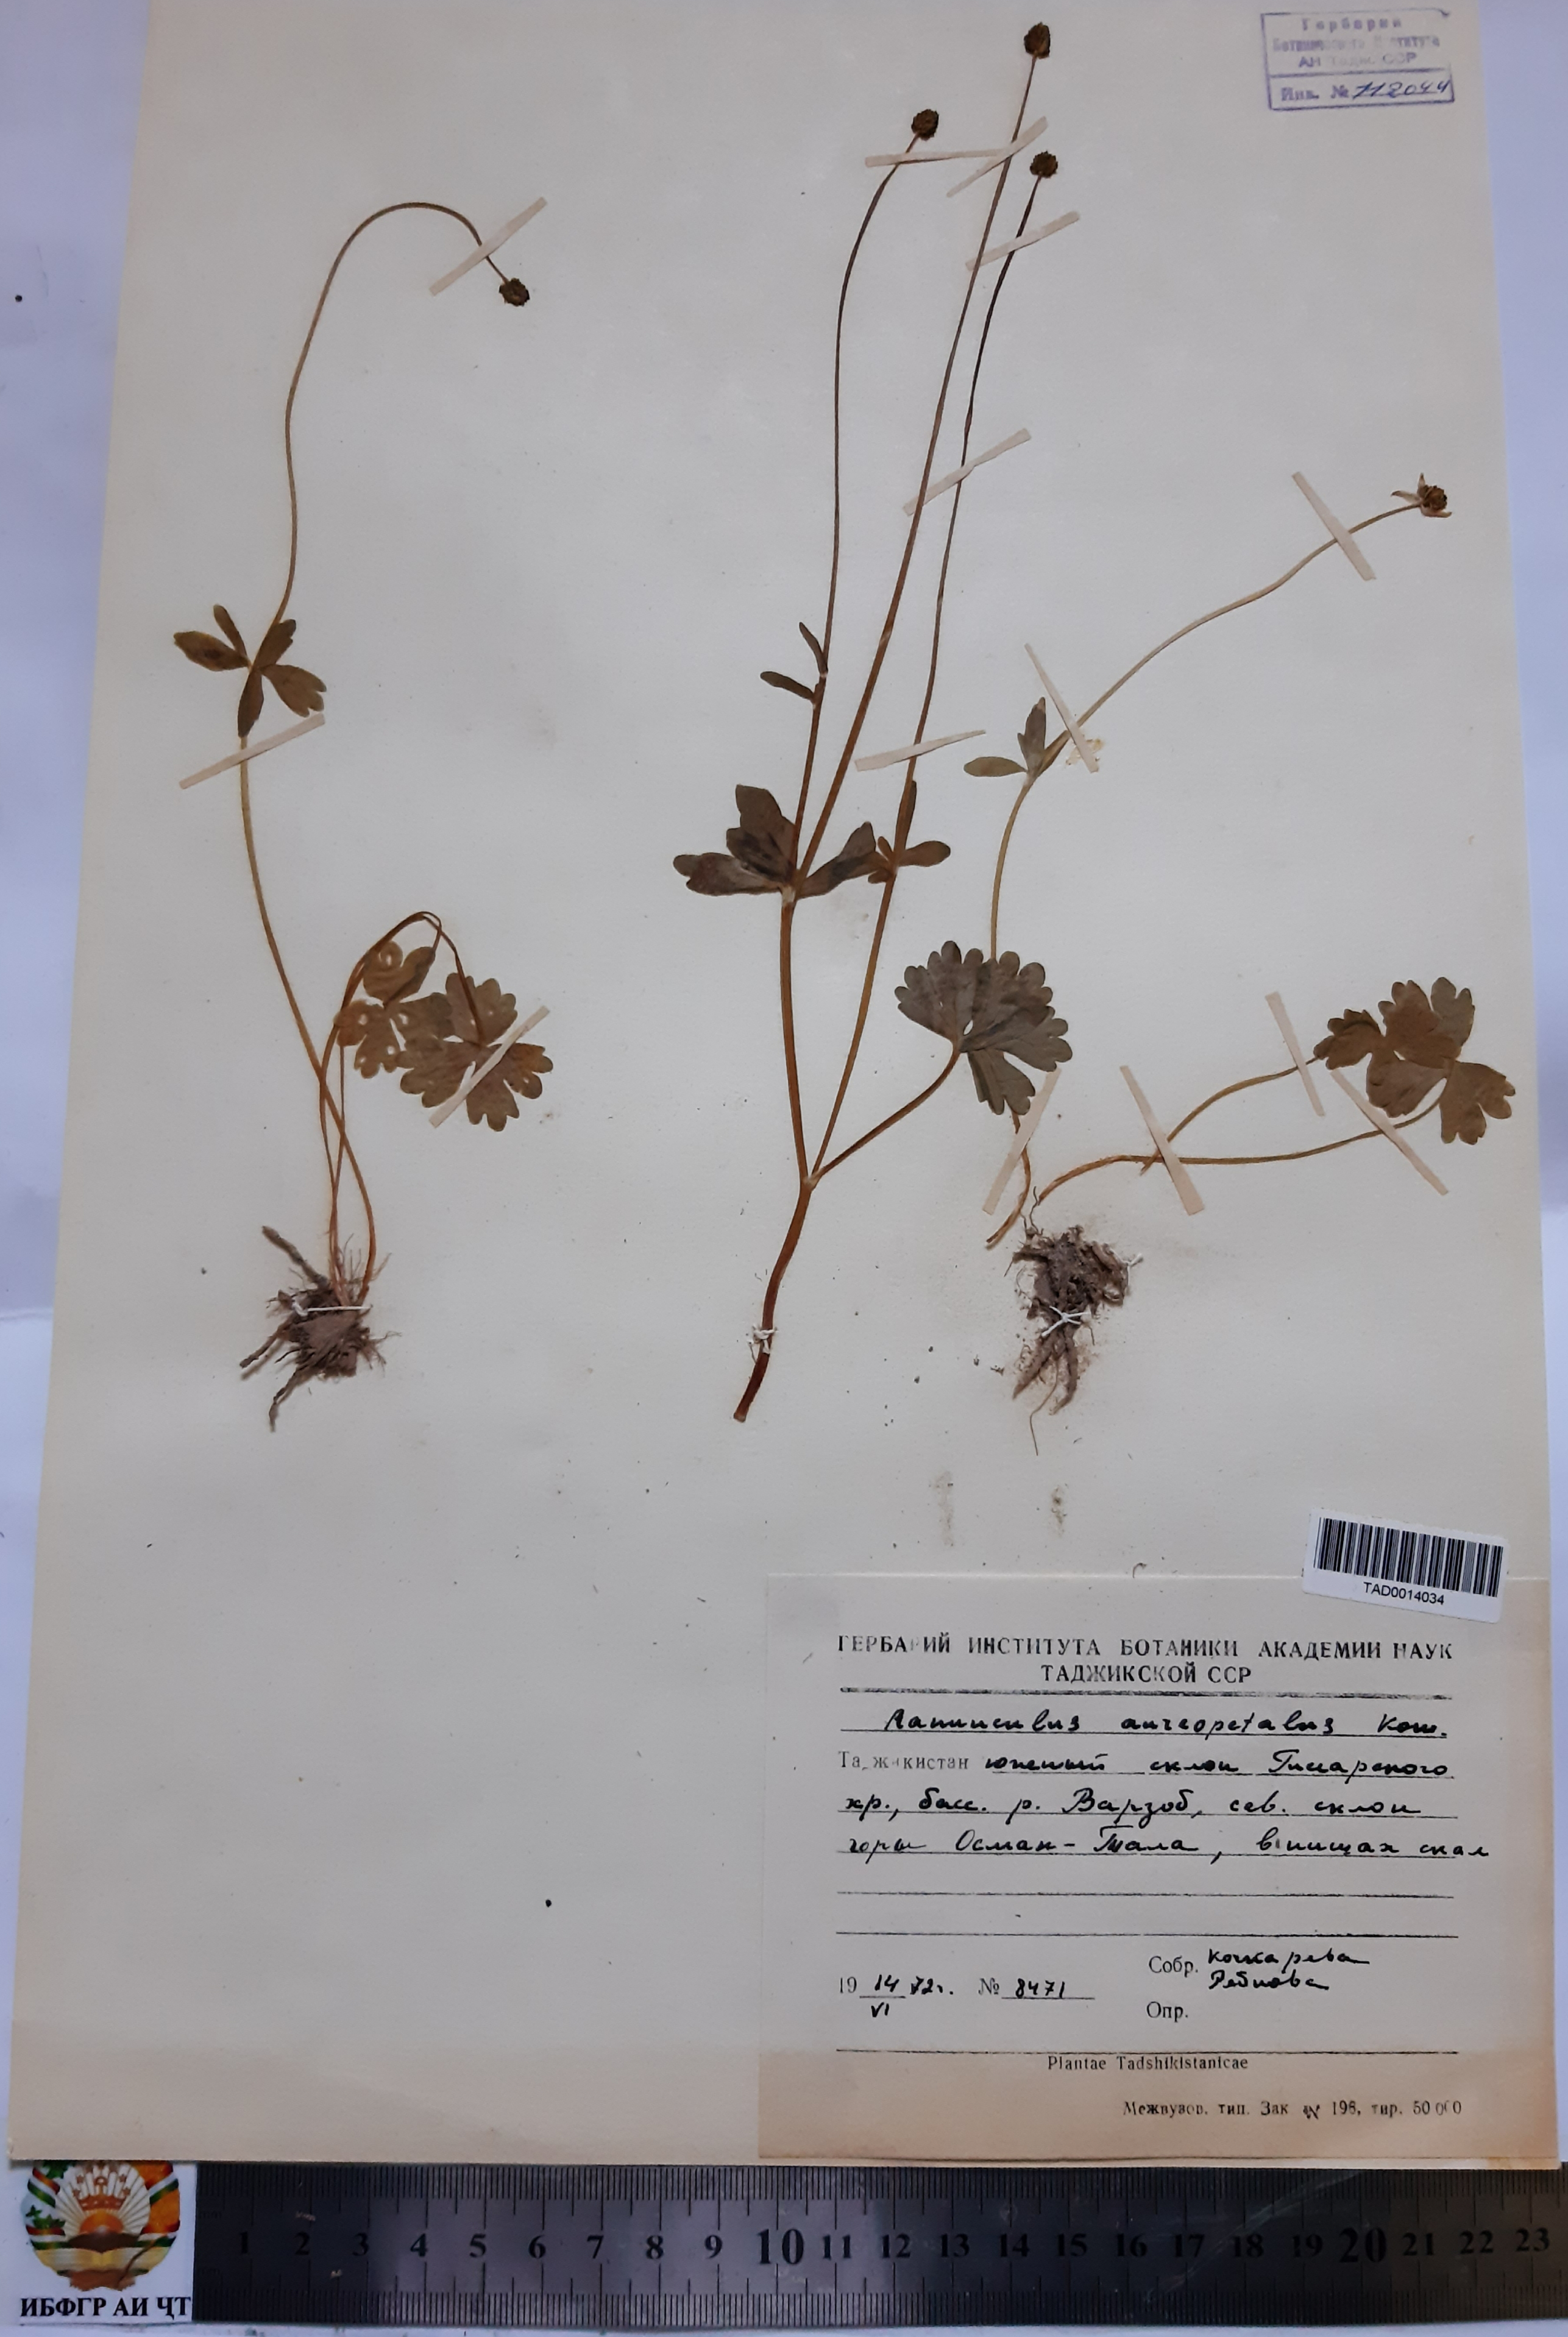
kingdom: Plantae
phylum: Tracheophyta
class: Magnoliopsida
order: Ranunculales
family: Ranunculaceae
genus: Ranunculus
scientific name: Ranunculus aureopetalus
